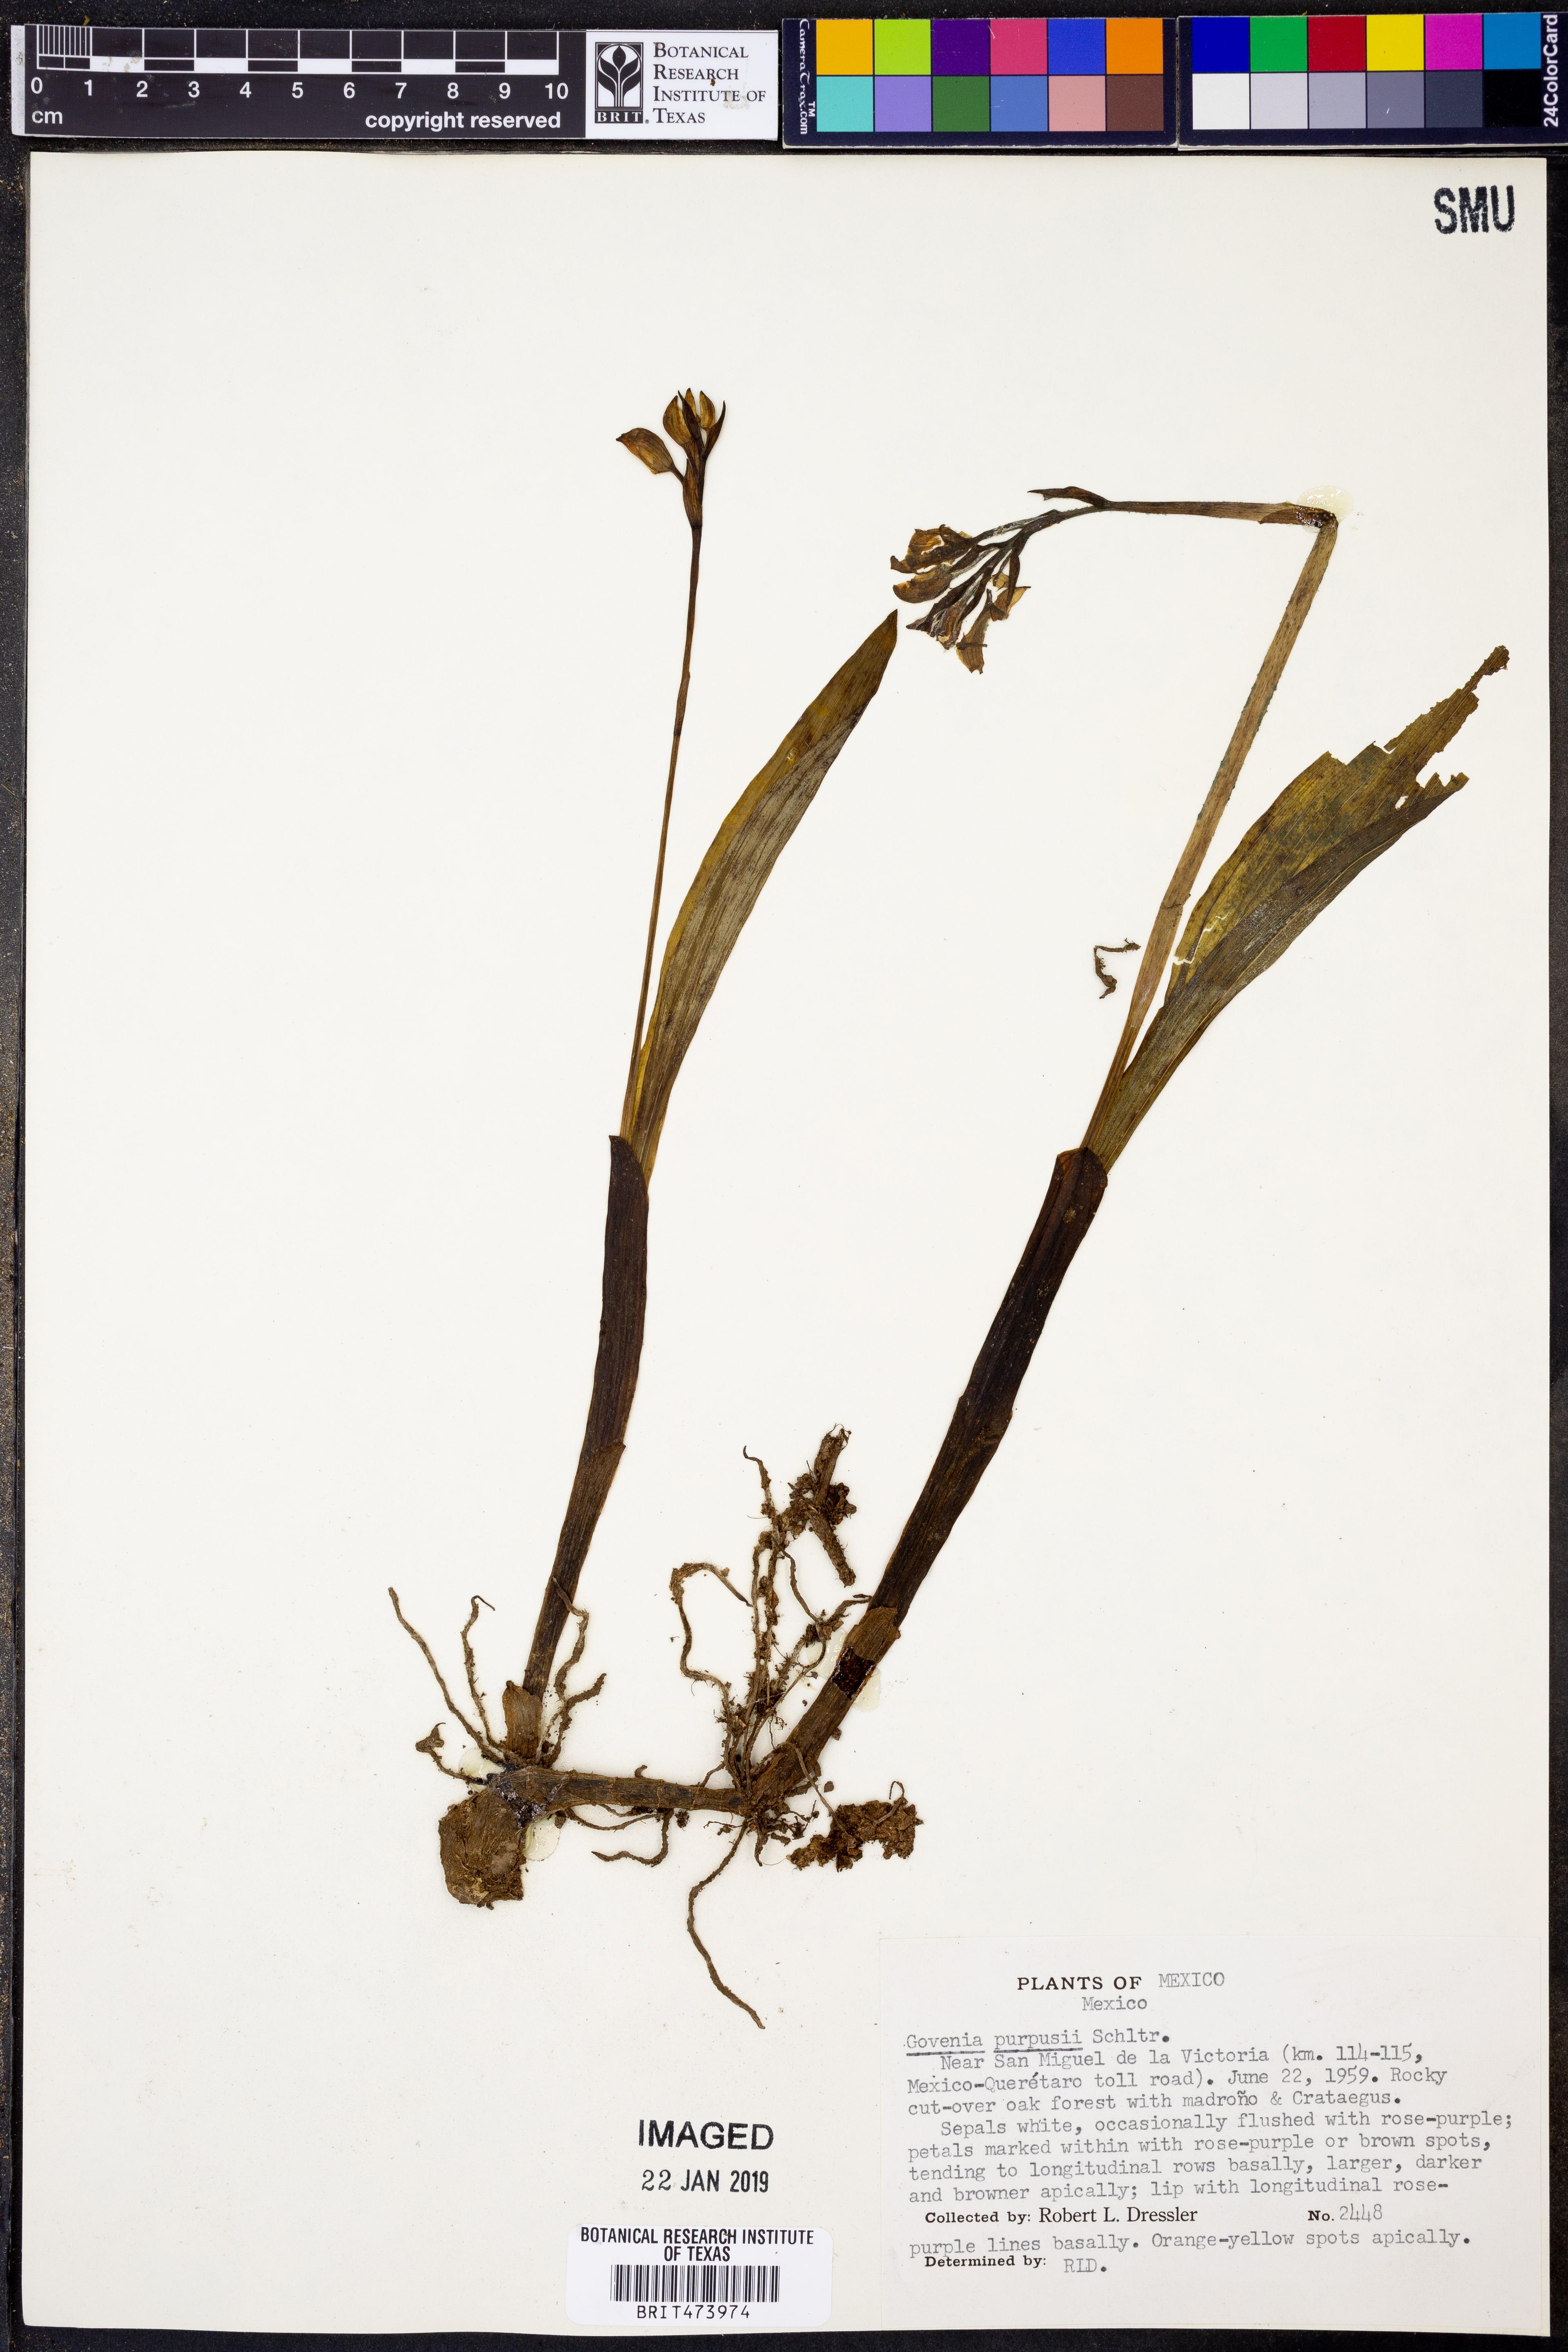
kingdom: Plantae
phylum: Tracheophyta
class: Liliopsida
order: Asparagales
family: Orchidaceae
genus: Govenia
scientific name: Govenia purpusii
